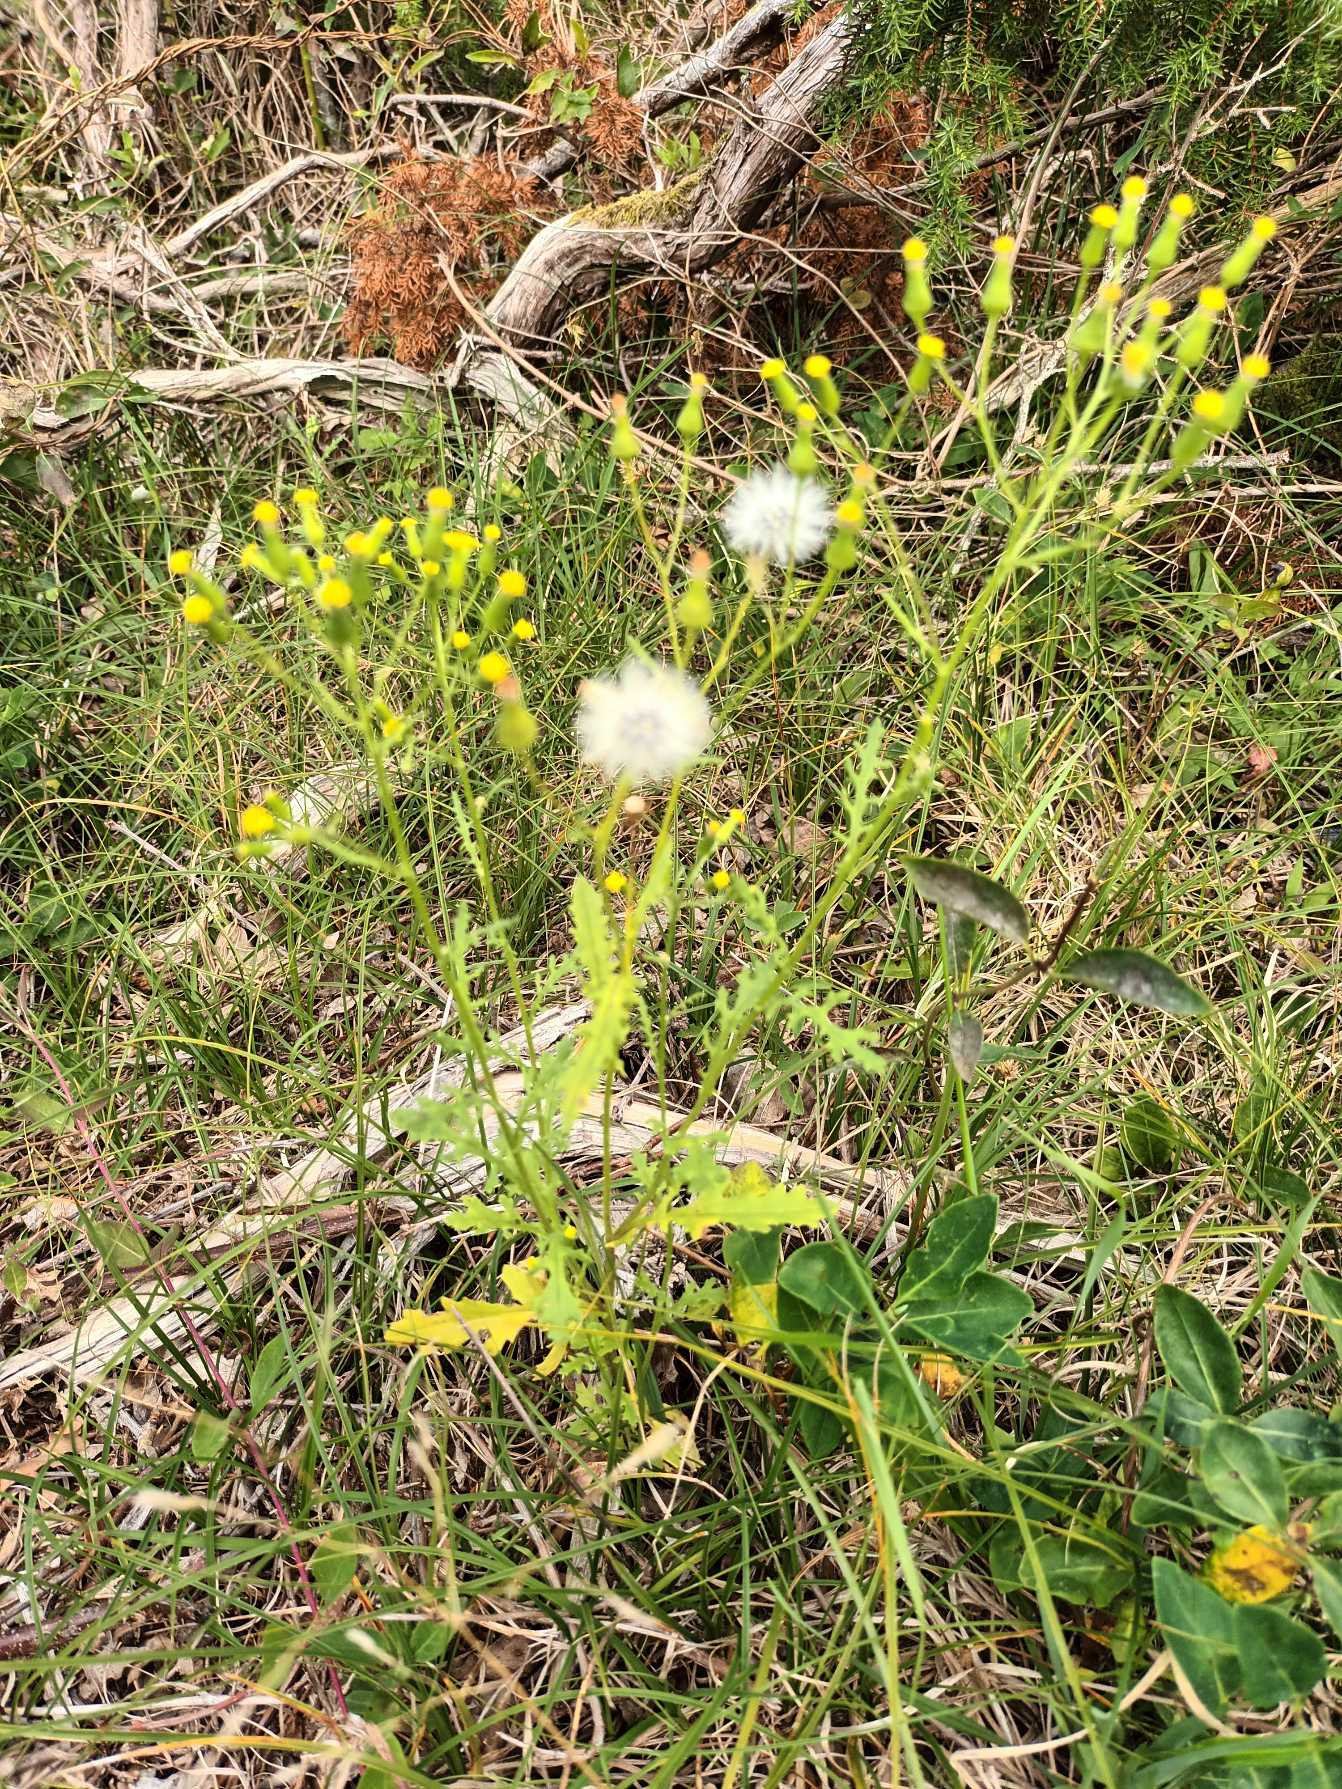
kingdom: Plantae
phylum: Tracheophyta
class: Magnoliopsida
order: Asterales
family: Asteraceae
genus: Senecio
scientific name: Senecio sylvaticus
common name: Skov-brandbæger
